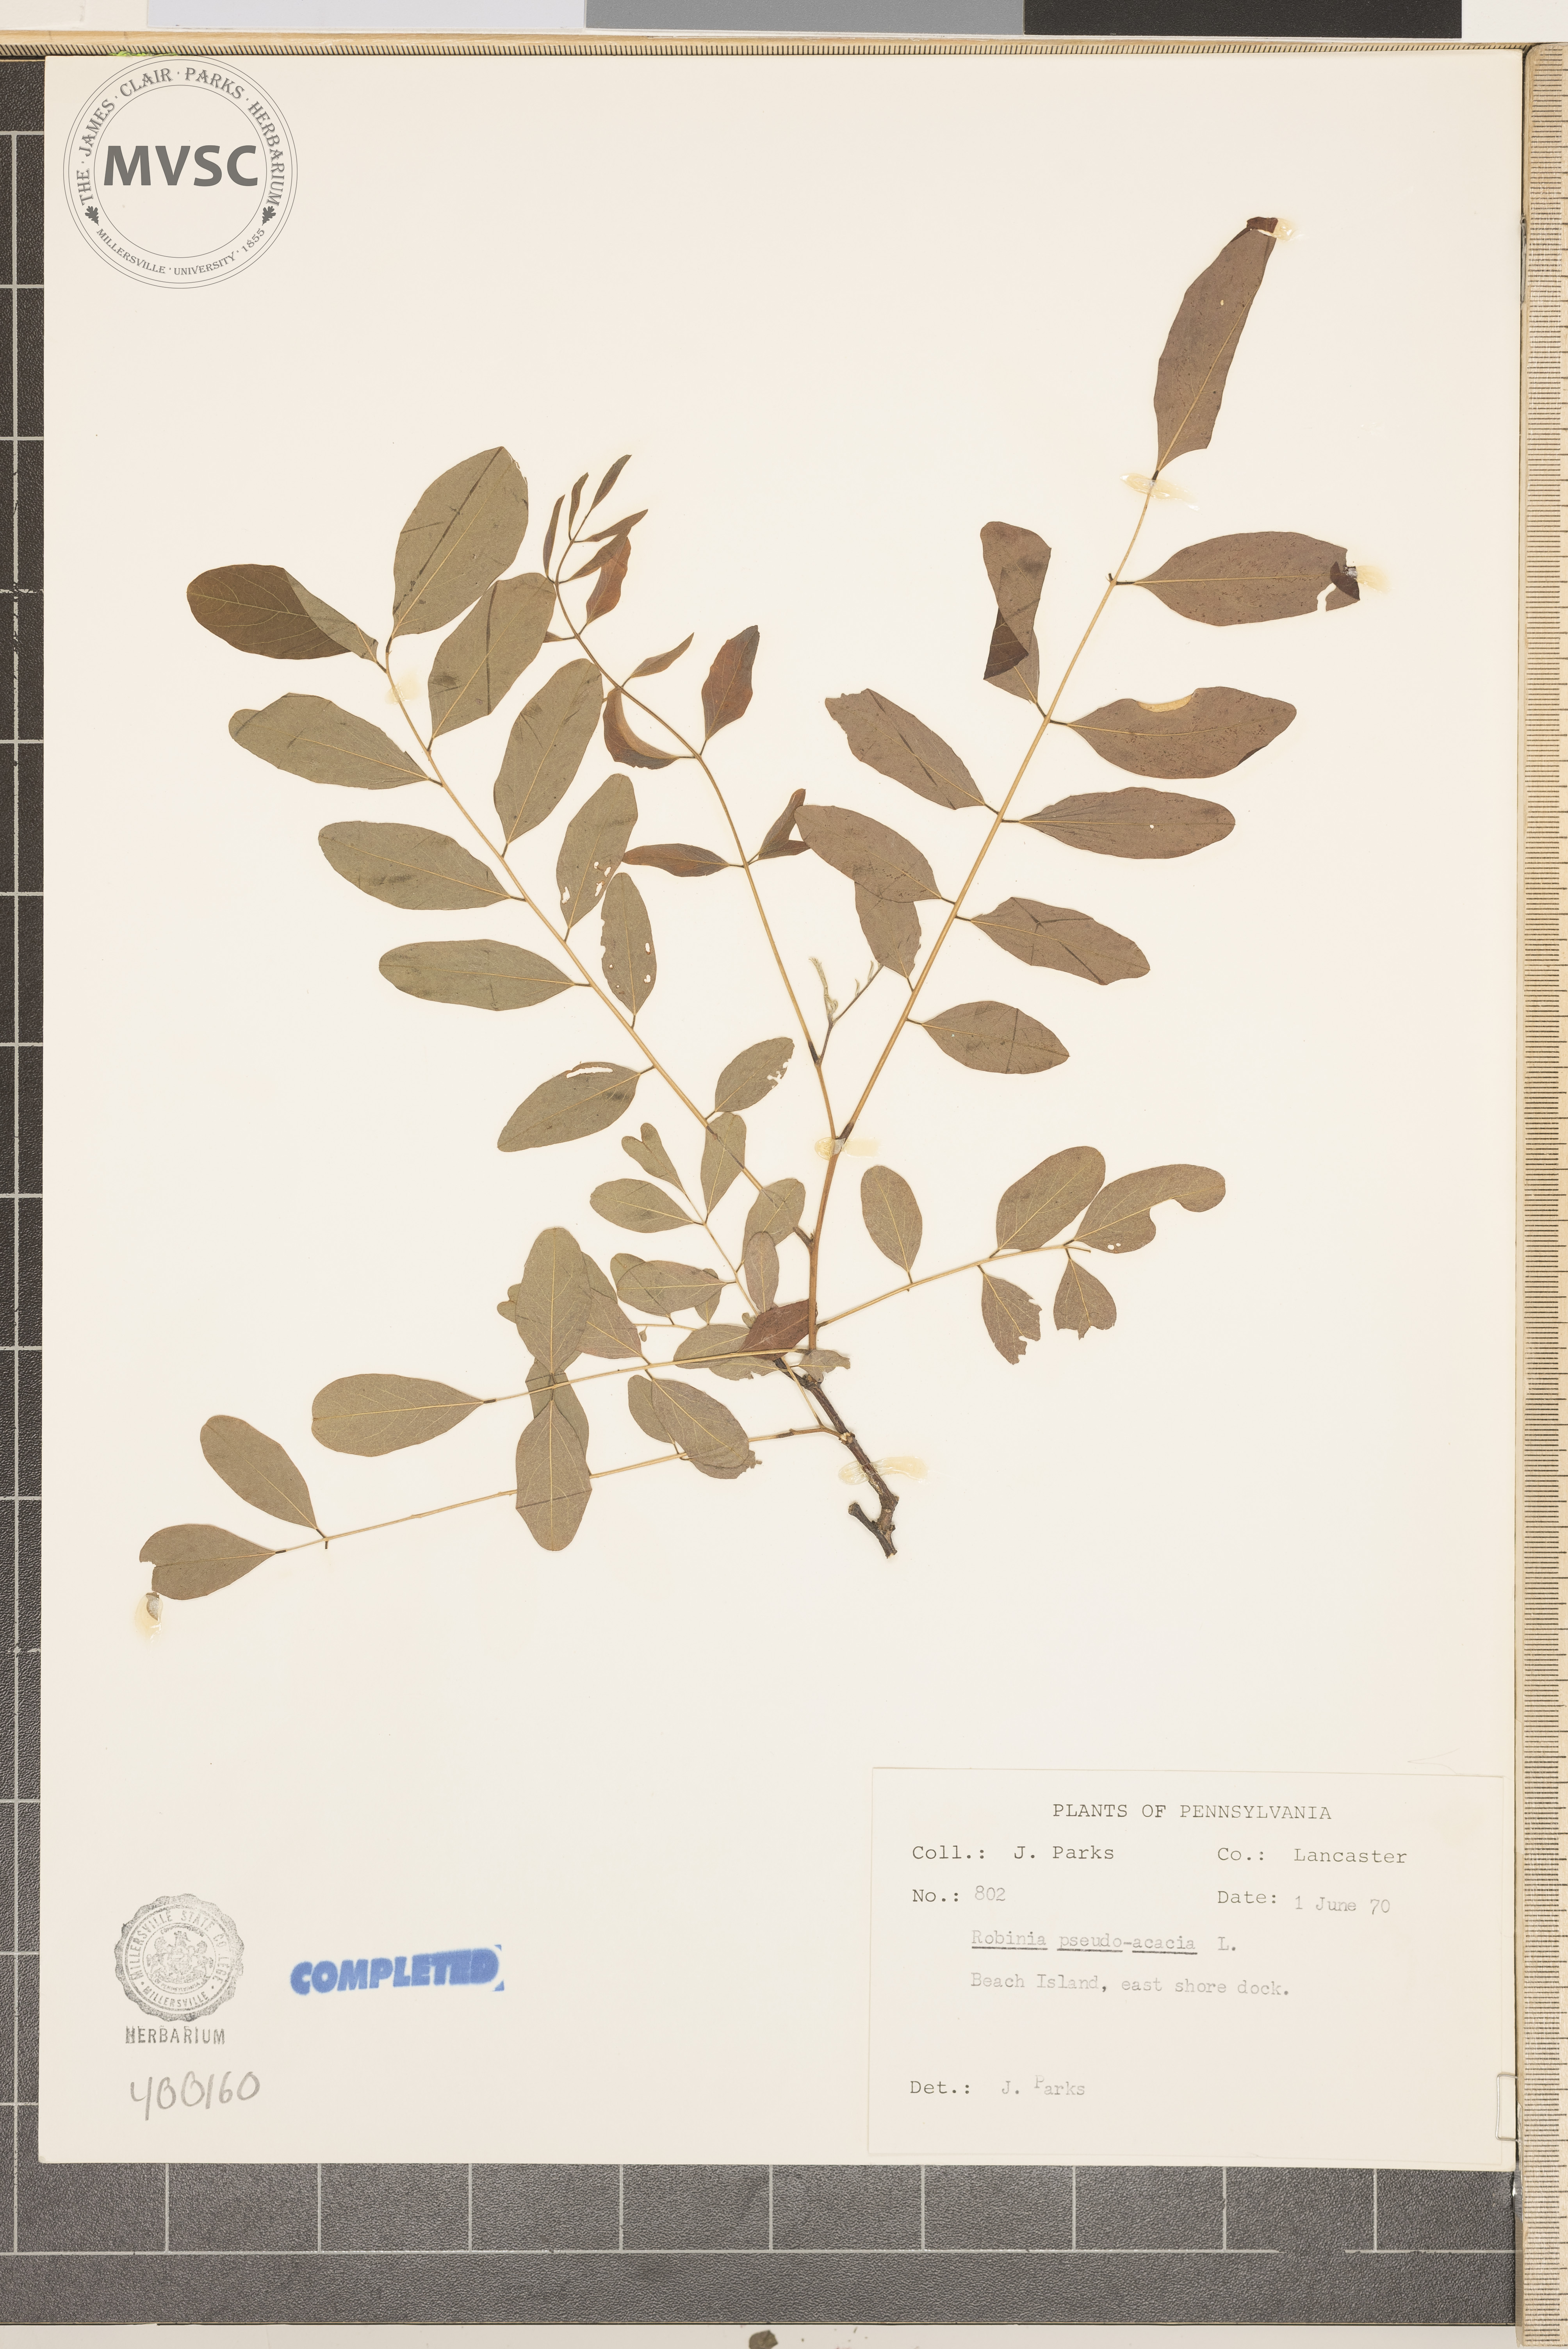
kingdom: Plantae
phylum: Tracheophyta
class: Magnoliopsida
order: Fabales
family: Fabaceae
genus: Robinia
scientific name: Robinia pseudoacacia
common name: black locust
